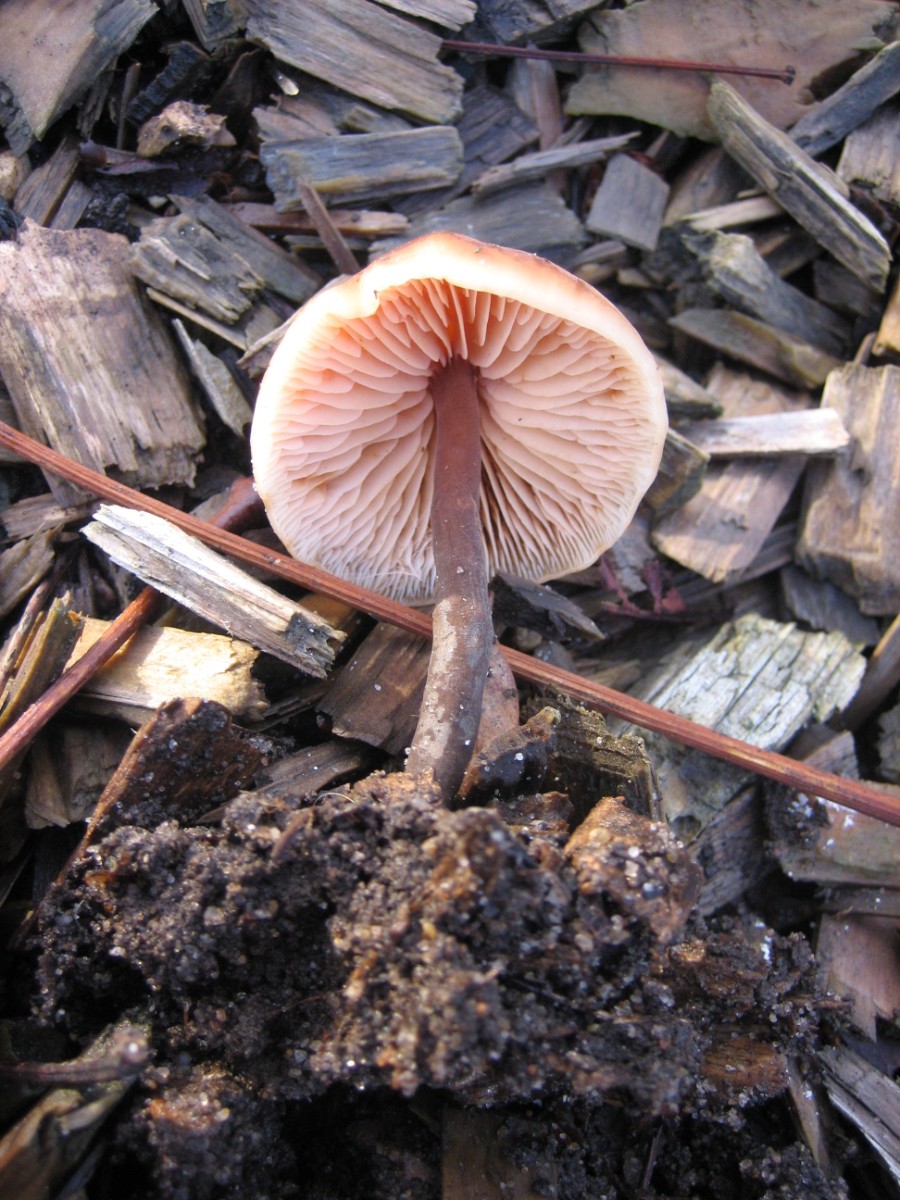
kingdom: Fungi
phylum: Basidiomycota
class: Agaricomycetes
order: Agaricales
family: Macrocystidiaceae
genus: Macrocystidia
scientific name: Macrocystidia cucumis
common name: agurkehat
